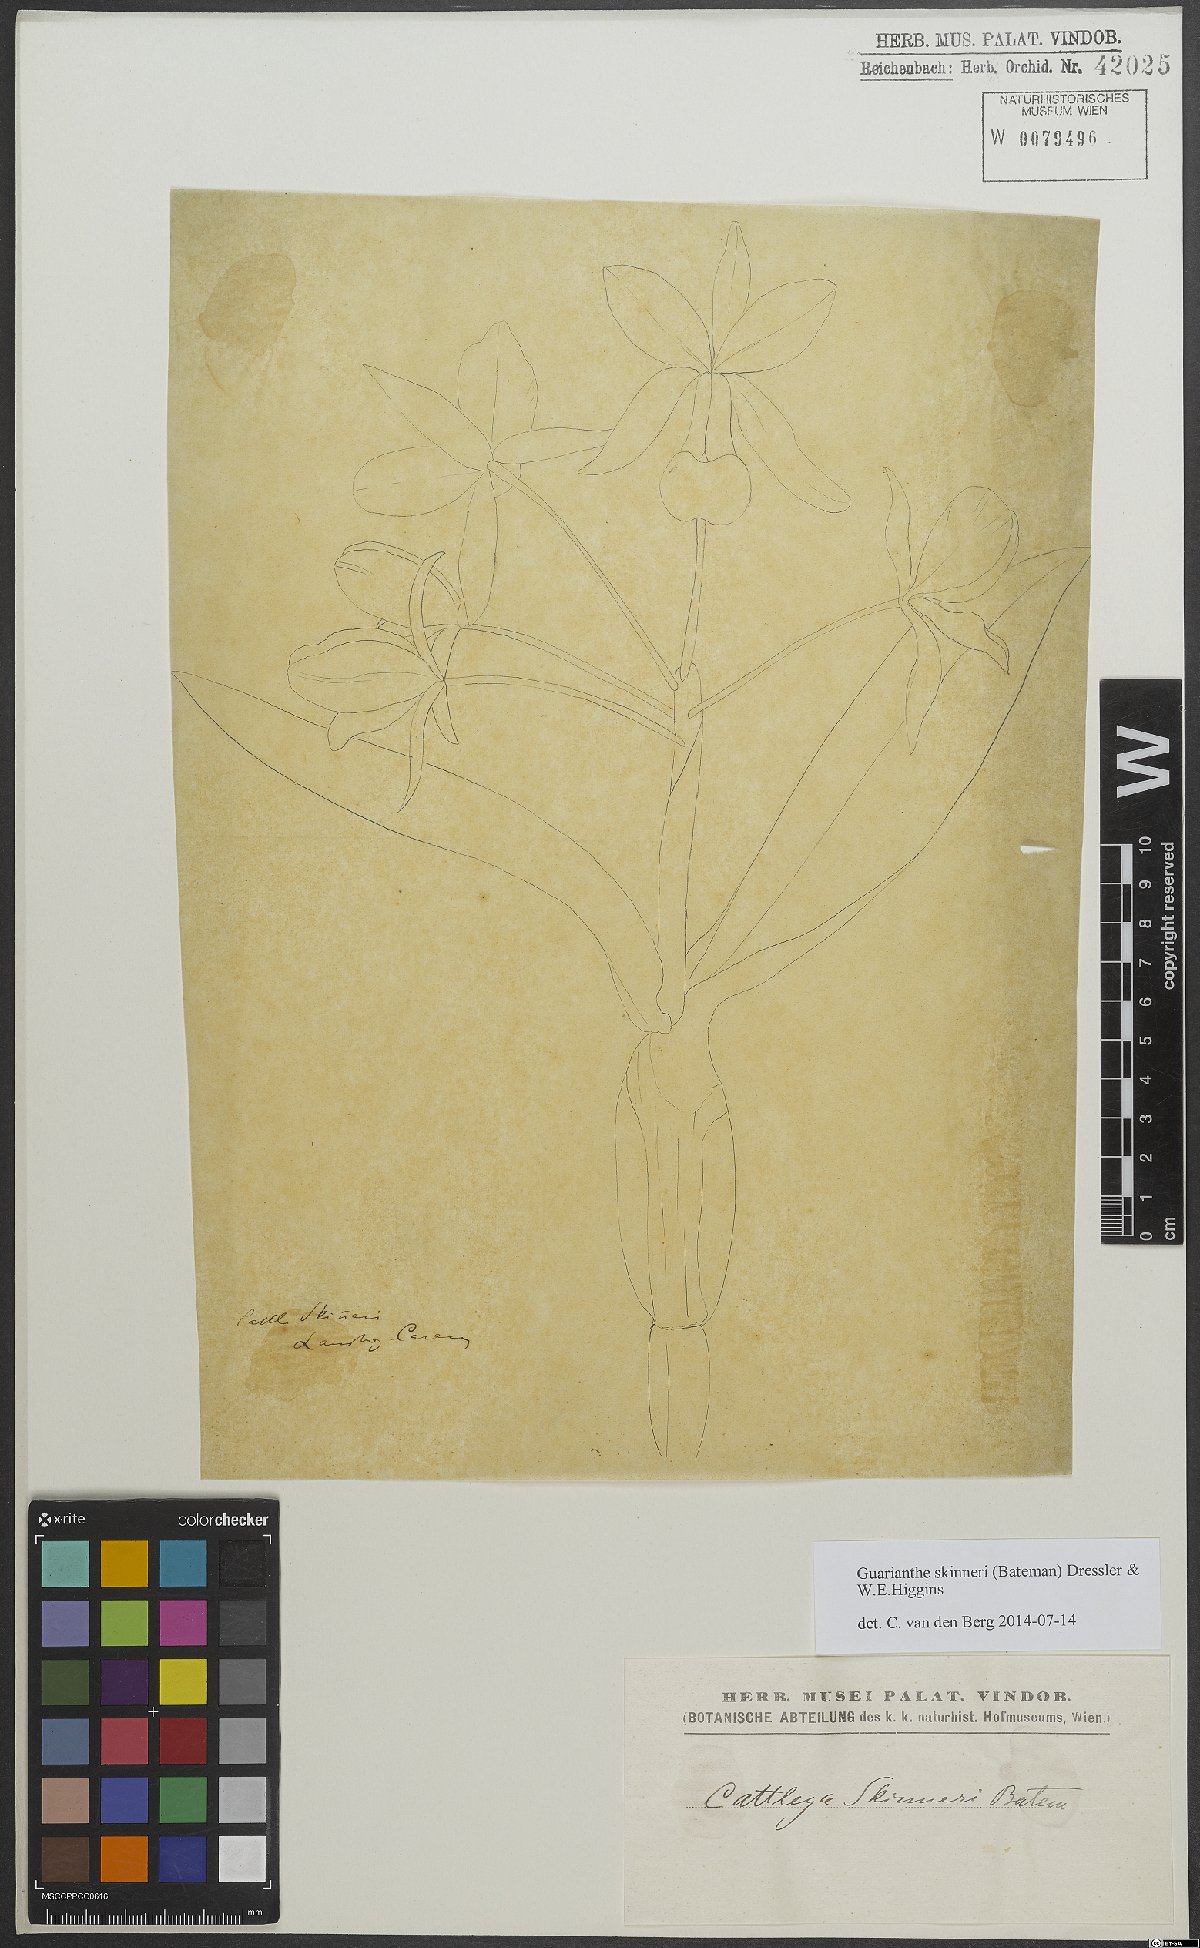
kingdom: Plantae
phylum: Tracheophyta
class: Liliopsida
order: Asparagales
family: Orchidaceae
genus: Guarianthe
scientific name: Guarianthe skinneri
